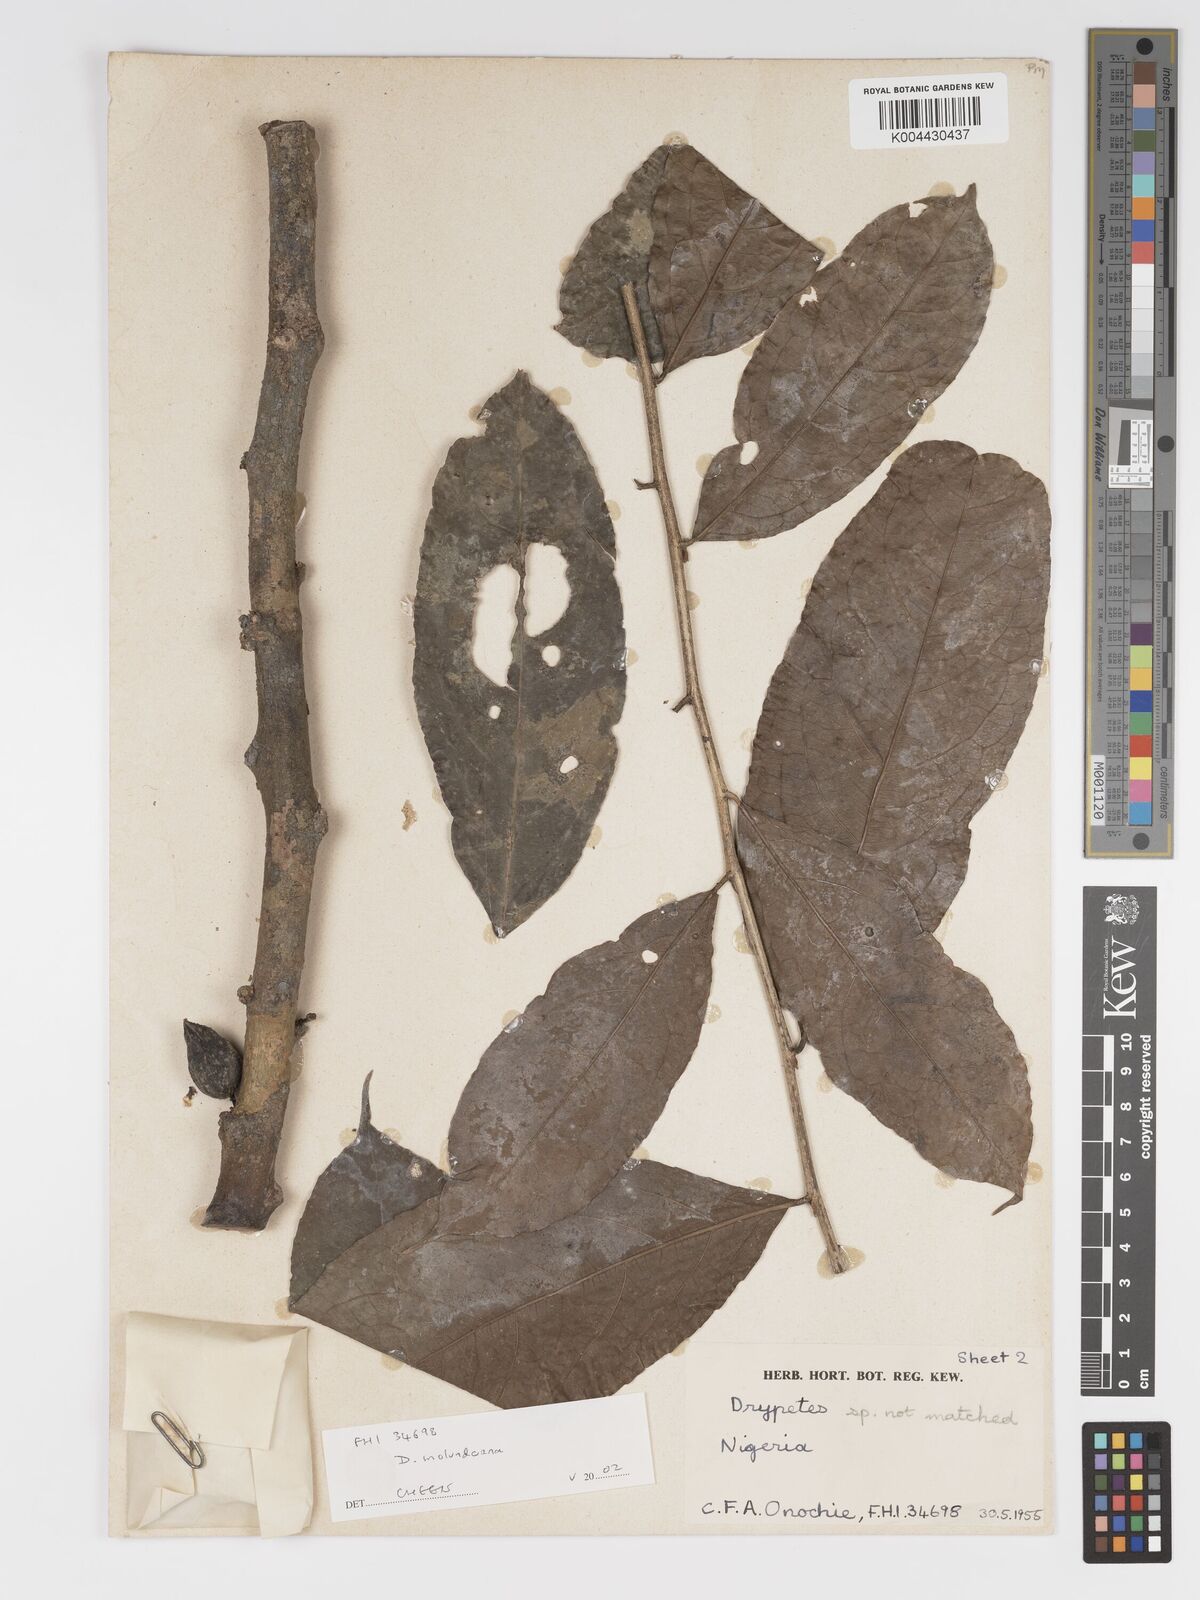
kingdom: Plantae
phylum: Tracheophyta
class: Magnoliopsida
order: Malpighiales
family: Putranjivaceae
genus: Drypetes
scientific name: Drypetes molunduana
